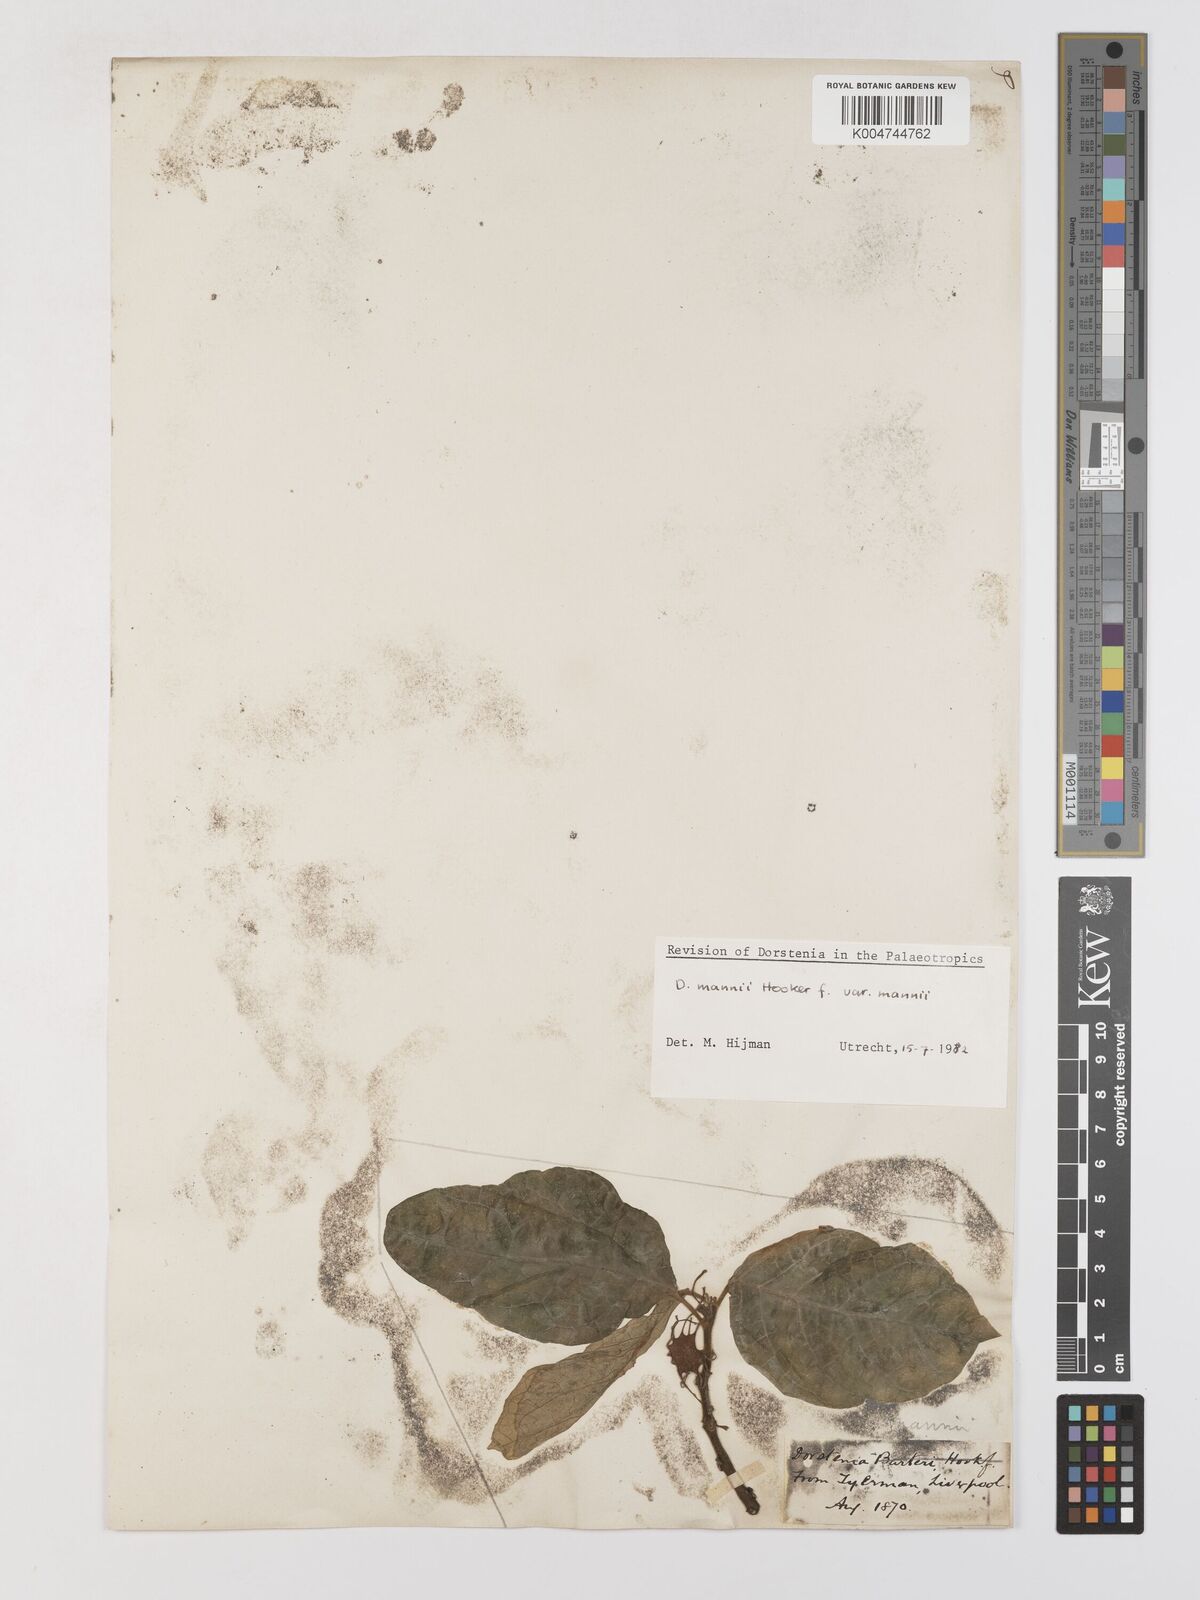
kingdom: Plantae
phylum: Tracheophyta
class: Magnoliopsida
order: Rosales
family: Moraceae
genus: Dorstenia
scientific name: Dorstenia mannii
